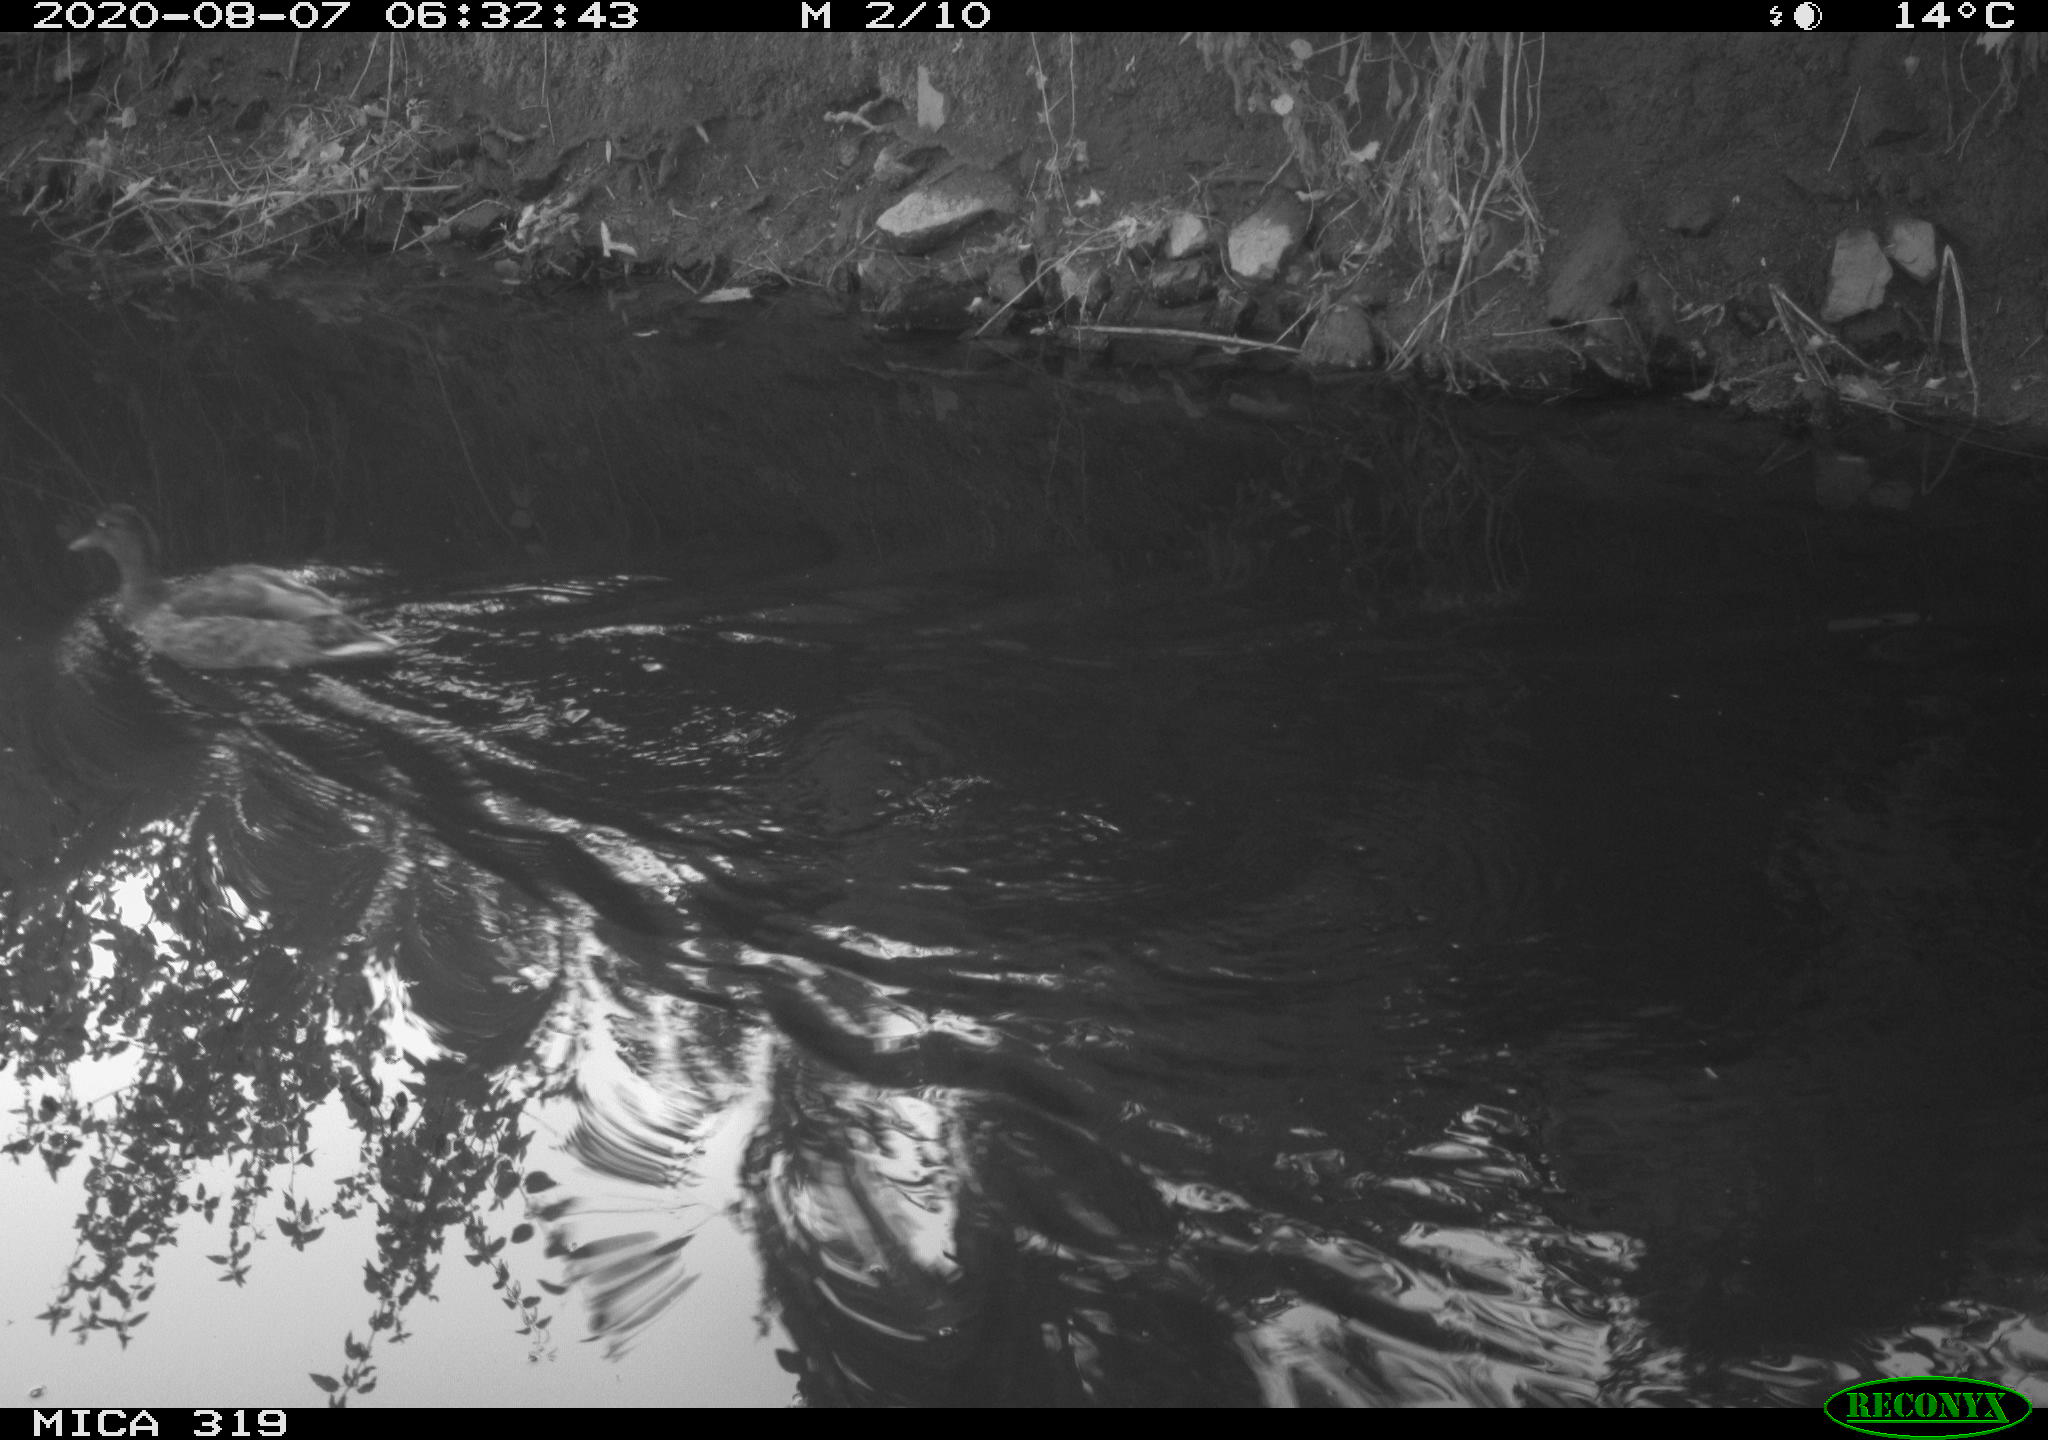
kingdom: Animalia
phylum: Chordata
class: Aves
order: Anseriformes
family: Anatidae
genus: Anas
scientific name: Anas platyrhynchos
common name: Mallard
